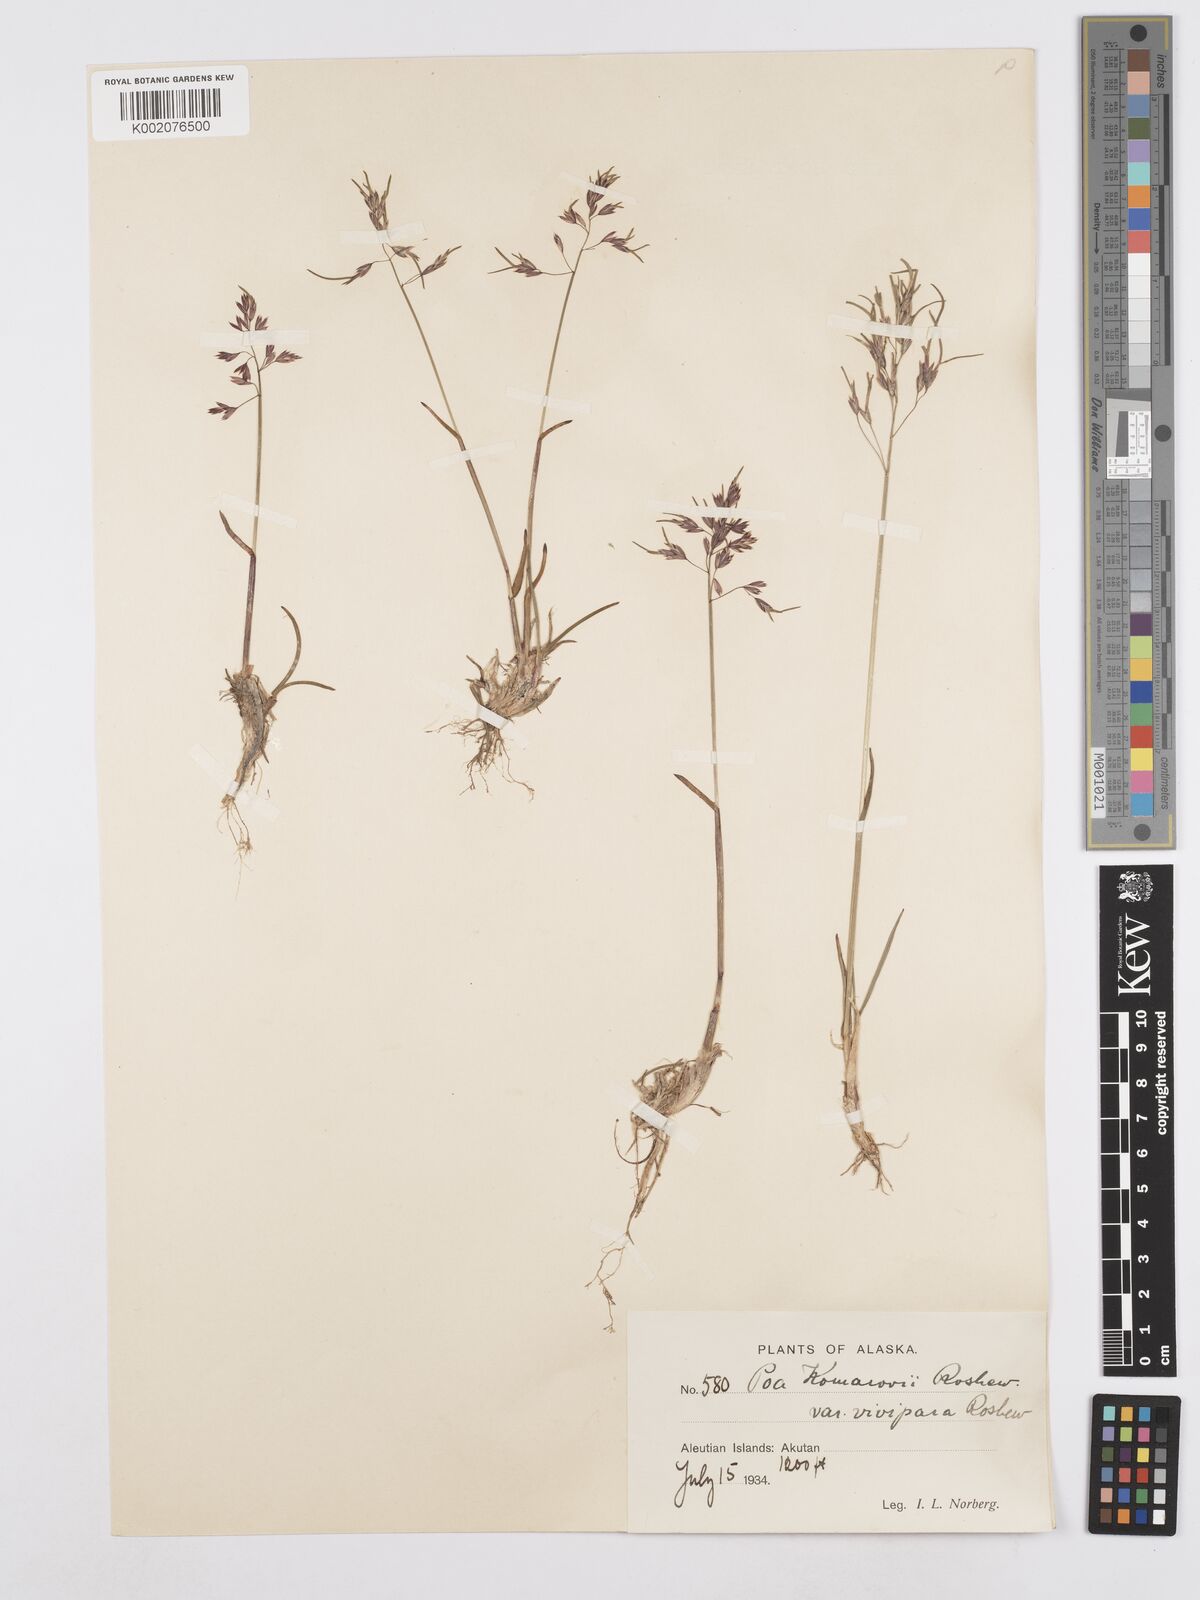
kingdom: Plantae
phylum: Tracheophyta
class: Liliopsida
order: Poales
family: Poaceae
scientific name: Poaceae
